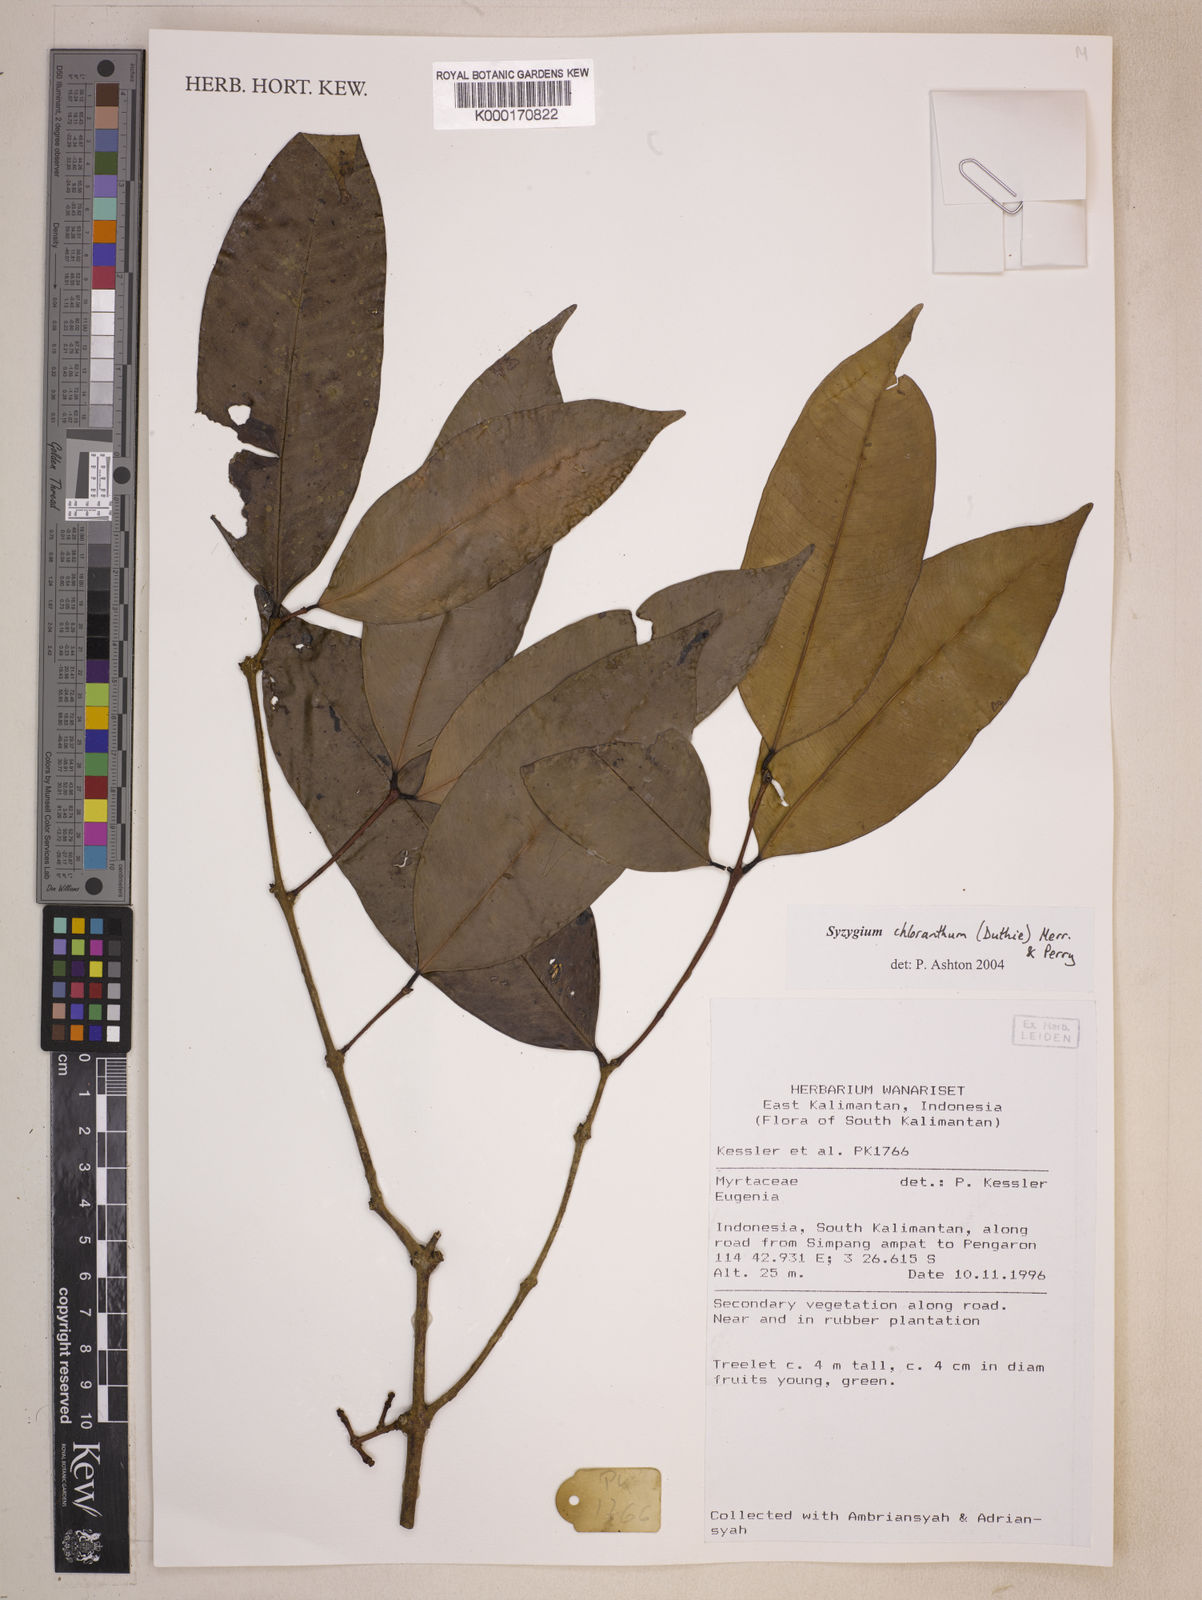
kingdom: Plantae
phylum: Tracheophyta
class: Magnoliopsida
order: Myrtales
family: Myrtaceae
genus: Syzygium
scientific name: Syzygium chloranthum
